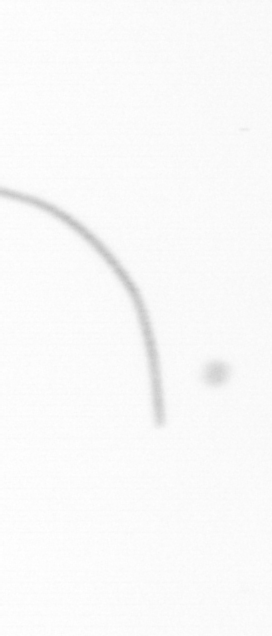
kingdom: Chromista
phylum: Ochrophyta
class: Bacillariophyceae
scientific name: Bacillariophyceae
